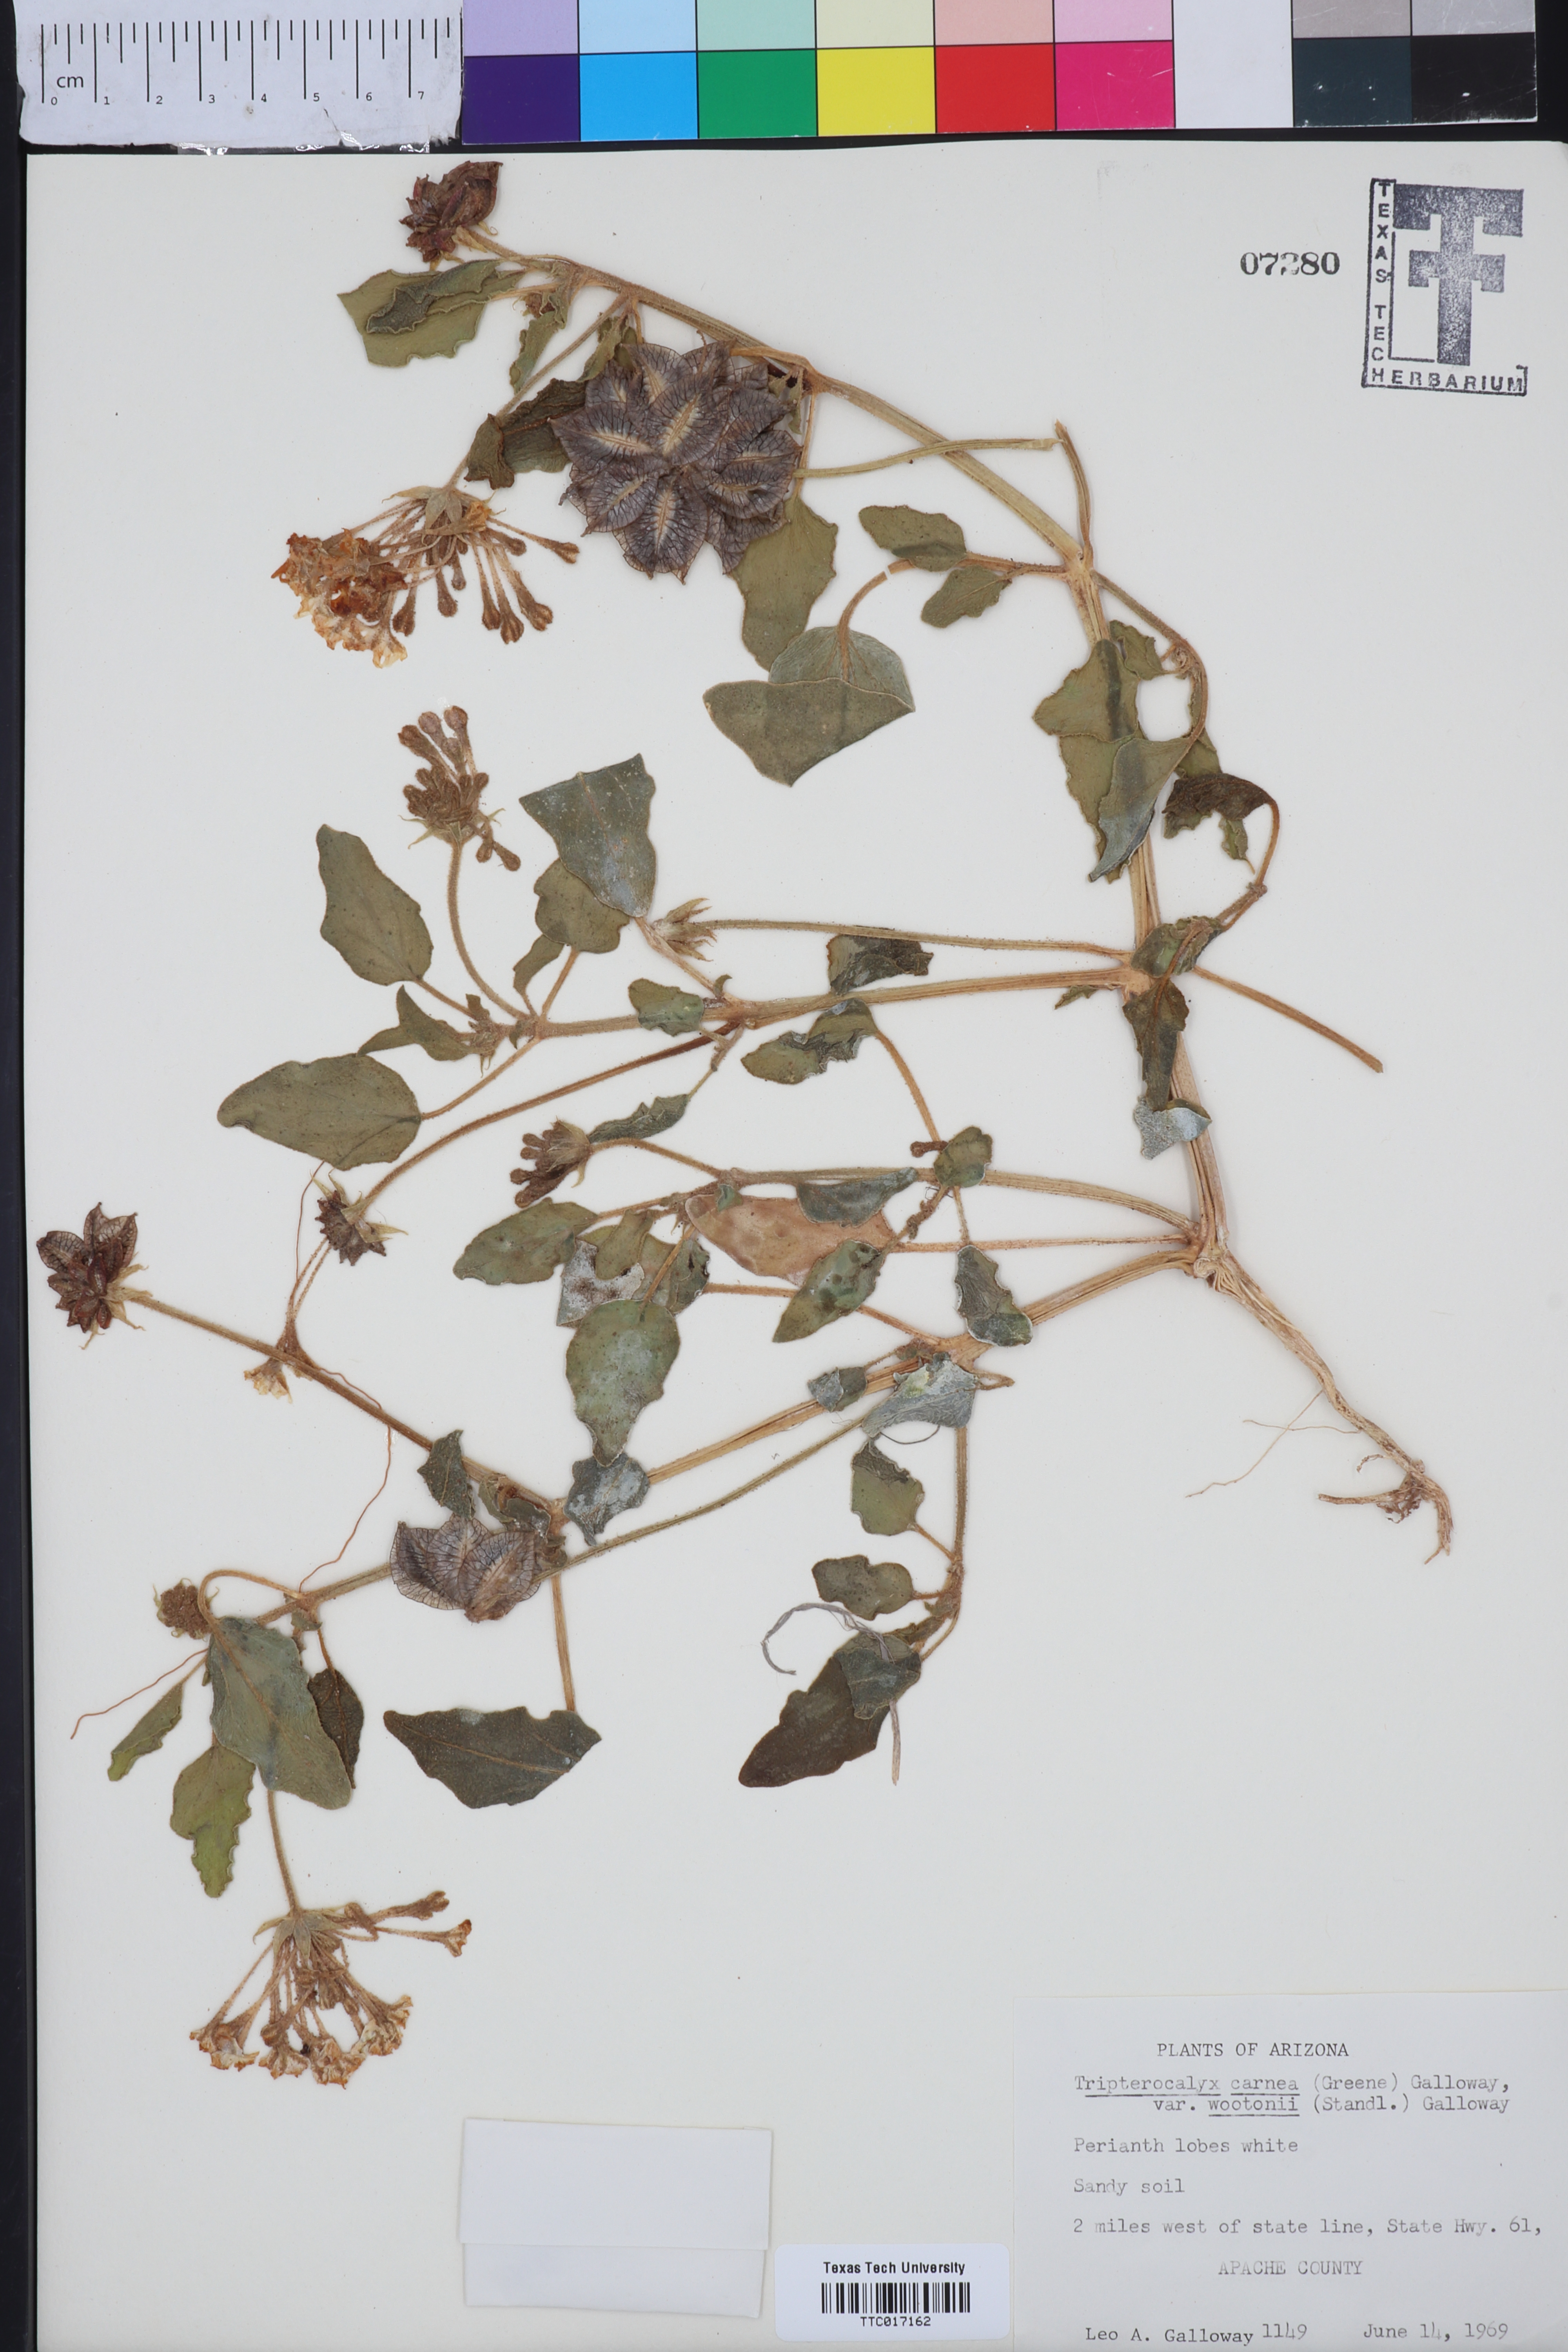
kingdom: Plantae
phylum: Tracheophyta
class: Magnoliopsida
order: Caryophyllales
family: Nyctaginaceae
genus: Tripterocalyx
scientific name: Tripterocalyx wootonii
